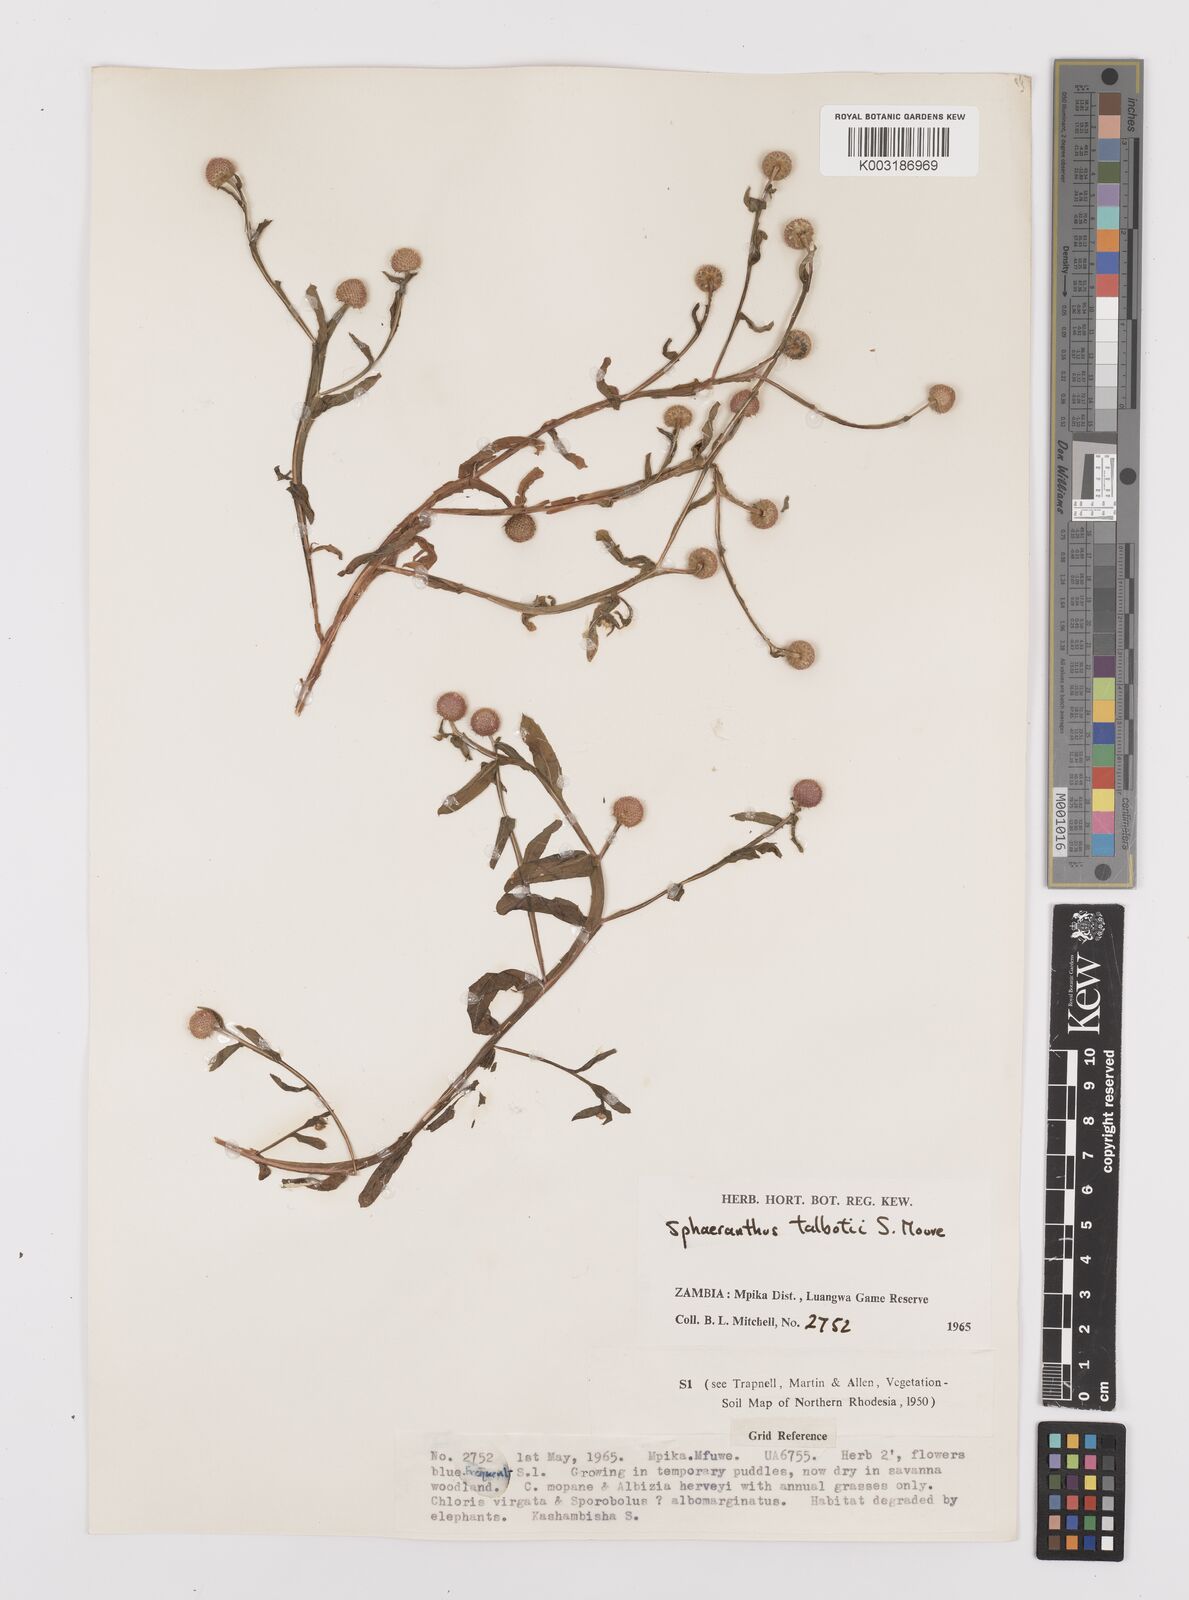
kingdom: Plantae
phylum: Tracheophyta
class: Magnoliopsida
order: Asterales
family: Asteraceae
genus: Sphaeranthus
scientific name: Sphaeranthus talbotii
